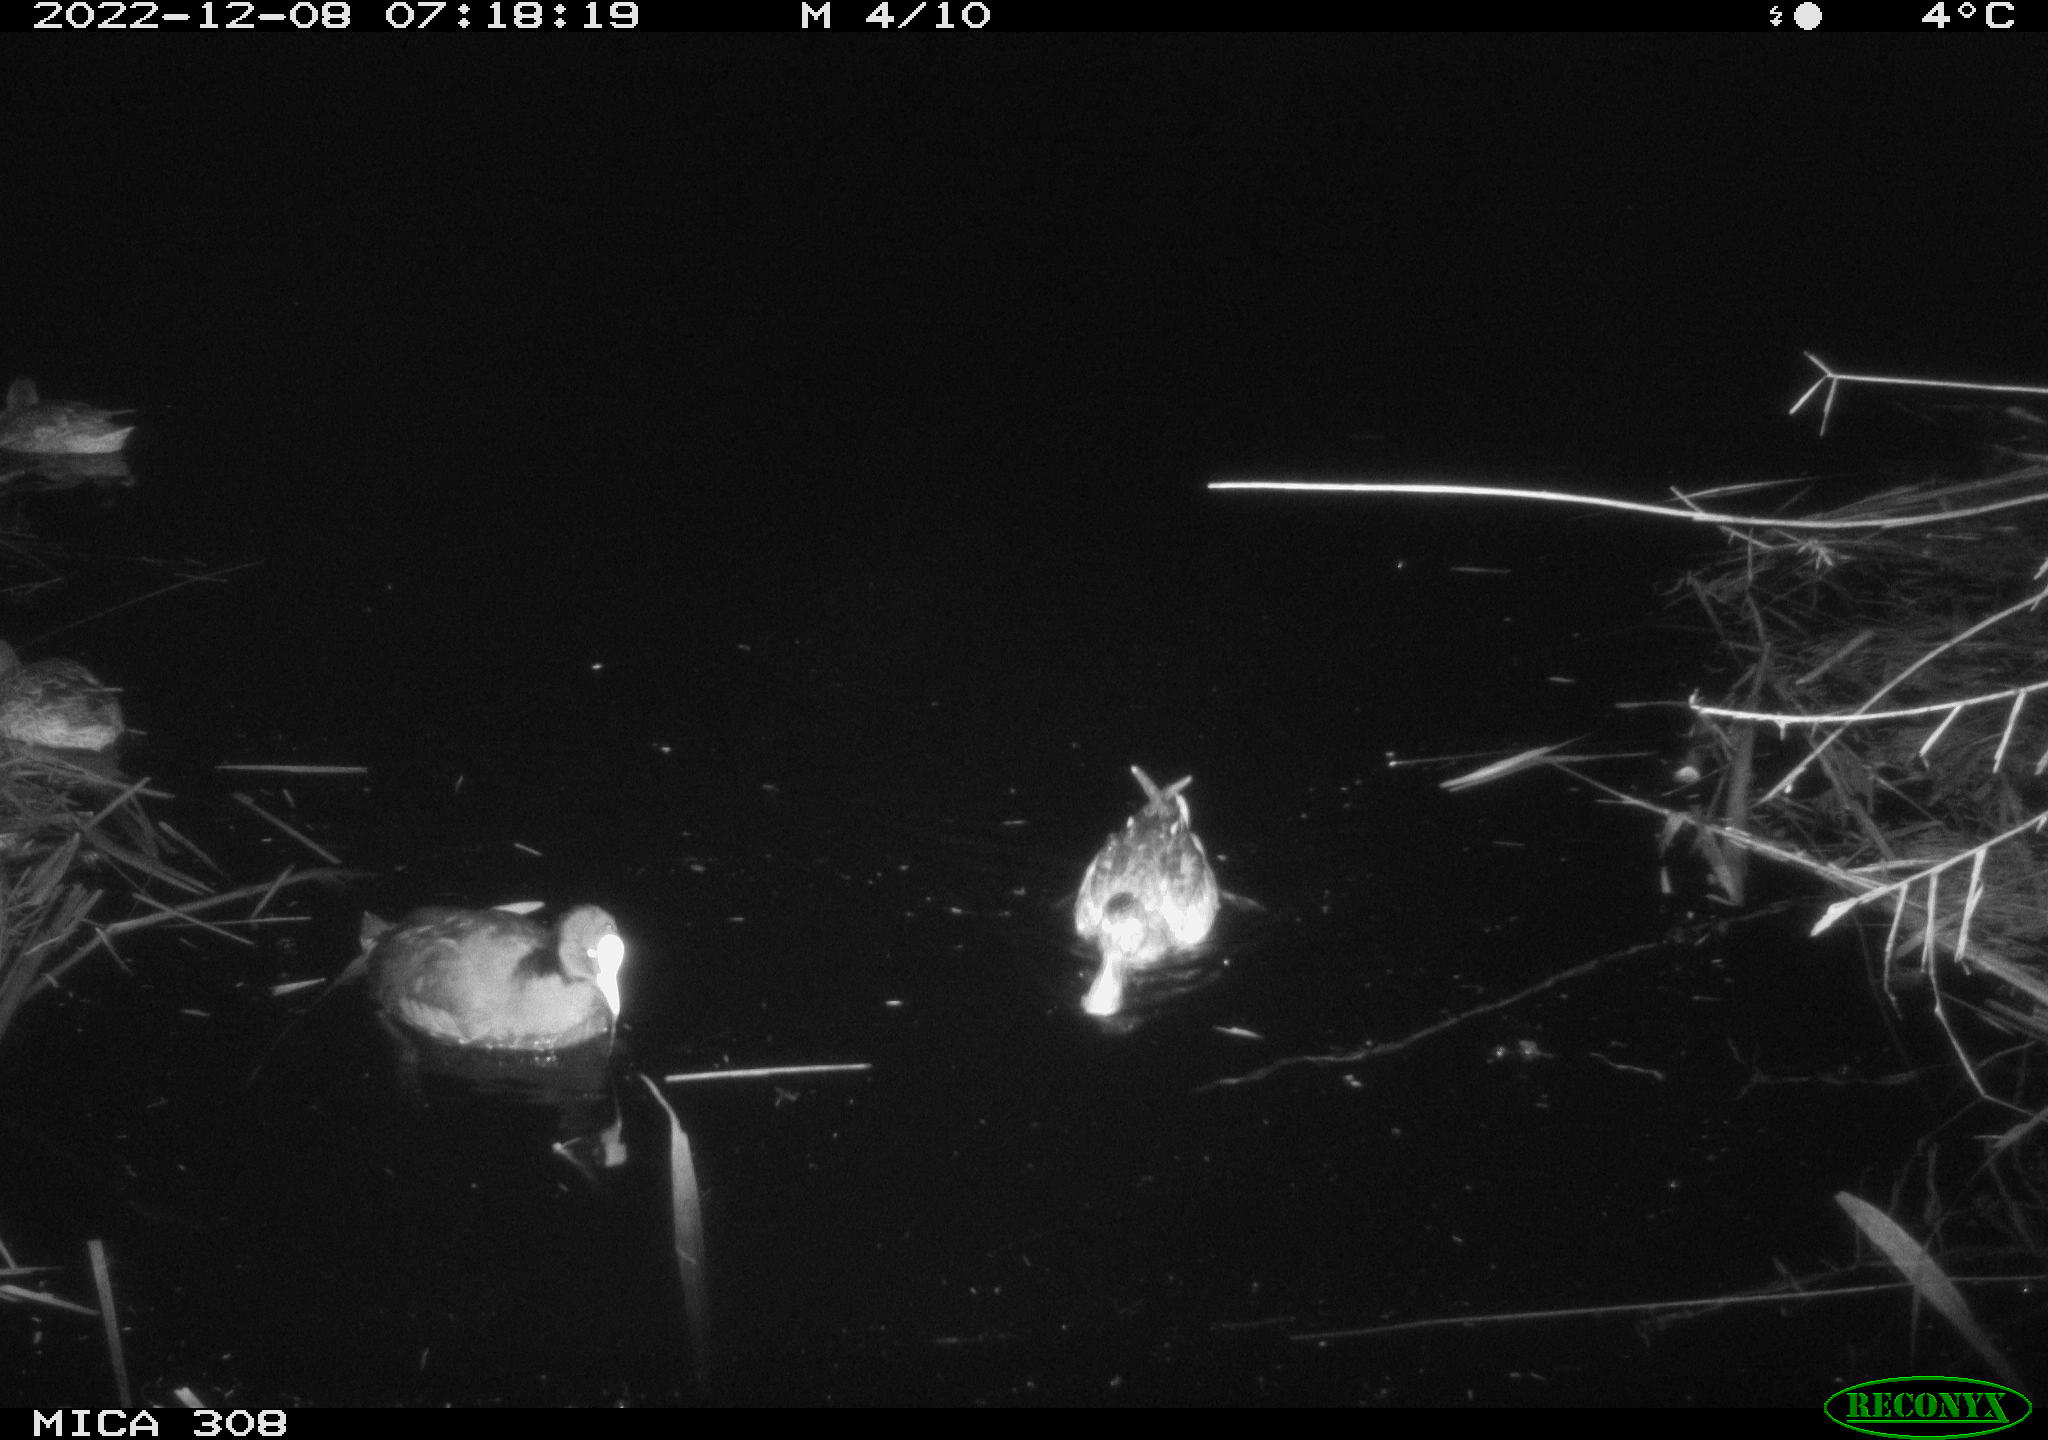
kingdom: Animalia
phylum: Chordata
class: Aves
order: Gruiformes
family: Rallidae
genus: Gallinula
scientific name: Gallinula chloropus
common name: Common moorhen
